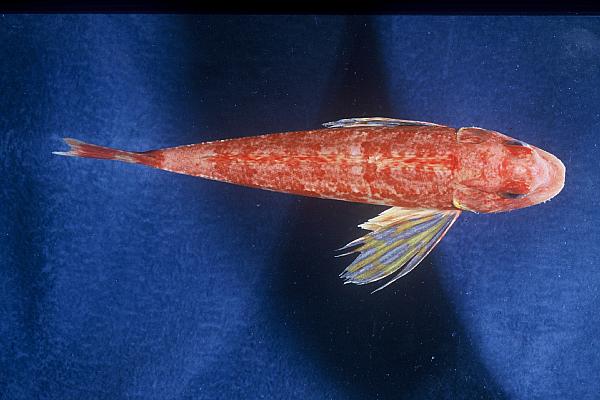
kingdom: Animalia
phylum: Chordata
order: Scorpaeniformes
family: Triglidae
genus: Chelidonichthys
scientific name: Chelidonichthys lastoviza
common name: Streaked gurnard
